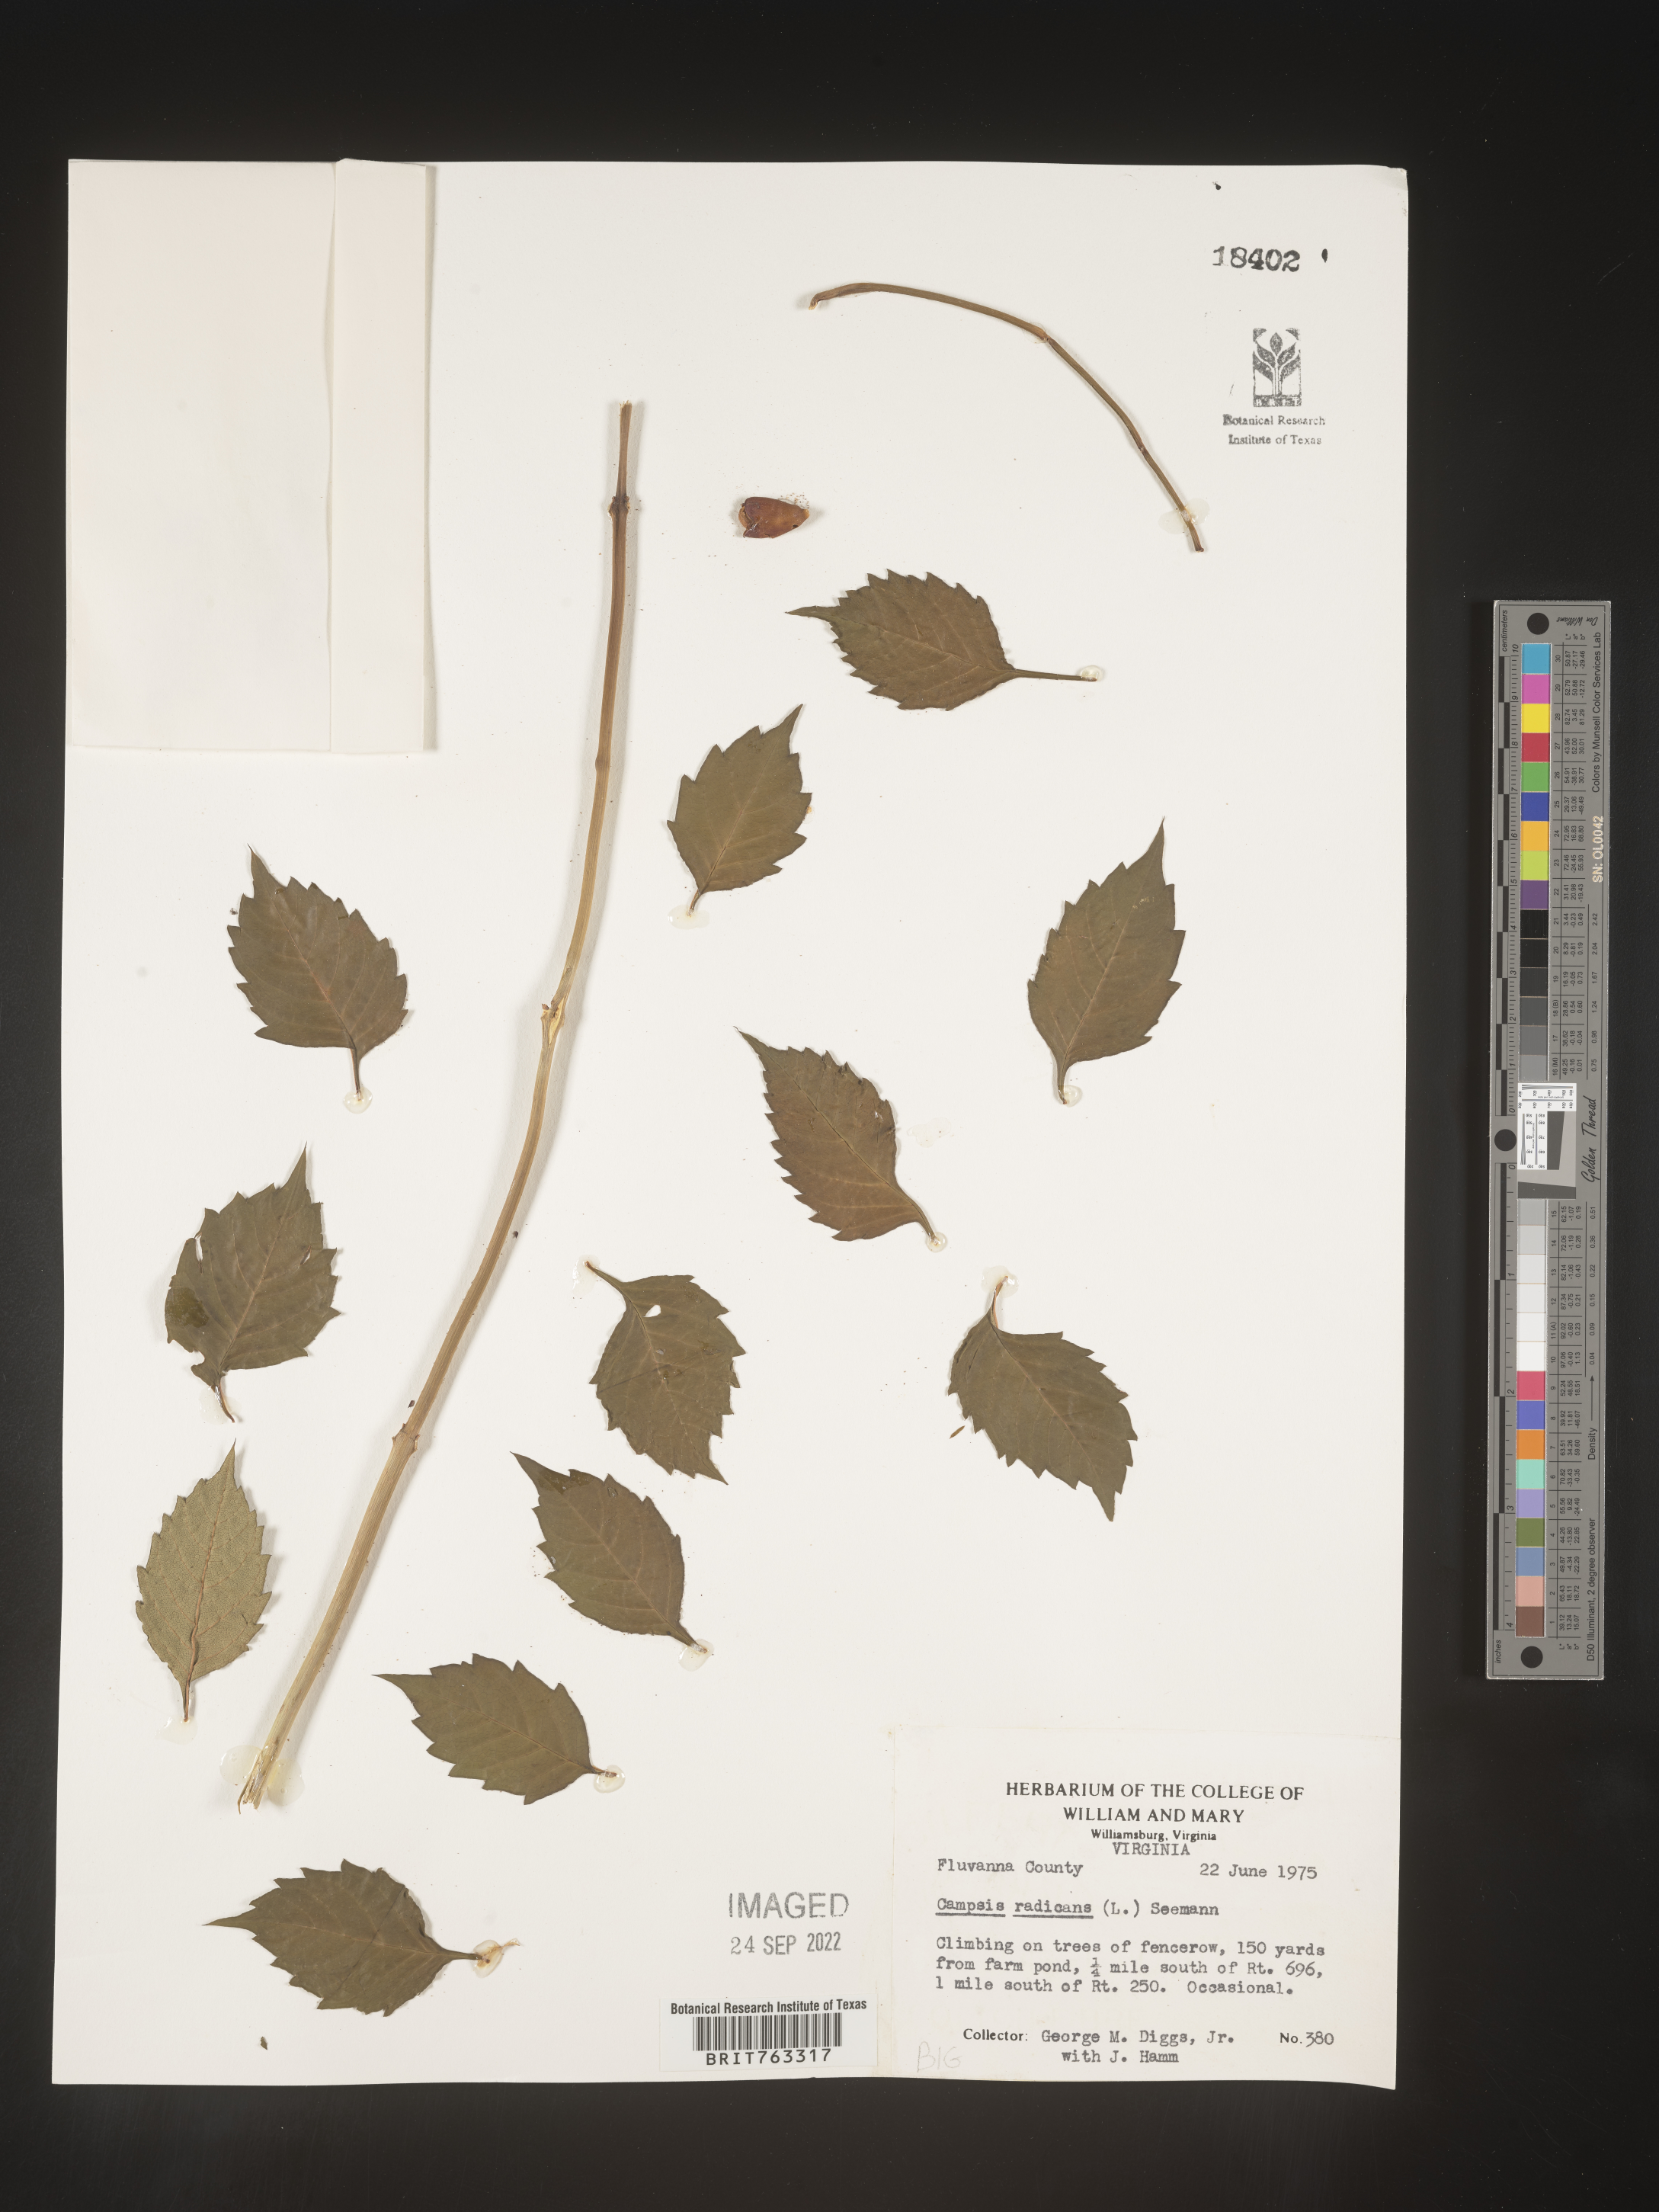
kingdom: Plantae
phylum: Tracheophyta
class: Magnoliopsida
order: Lamiales
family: Bignoniaceae
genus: Campsis
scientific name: Campsis radicans
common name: Trumpet-creeper
